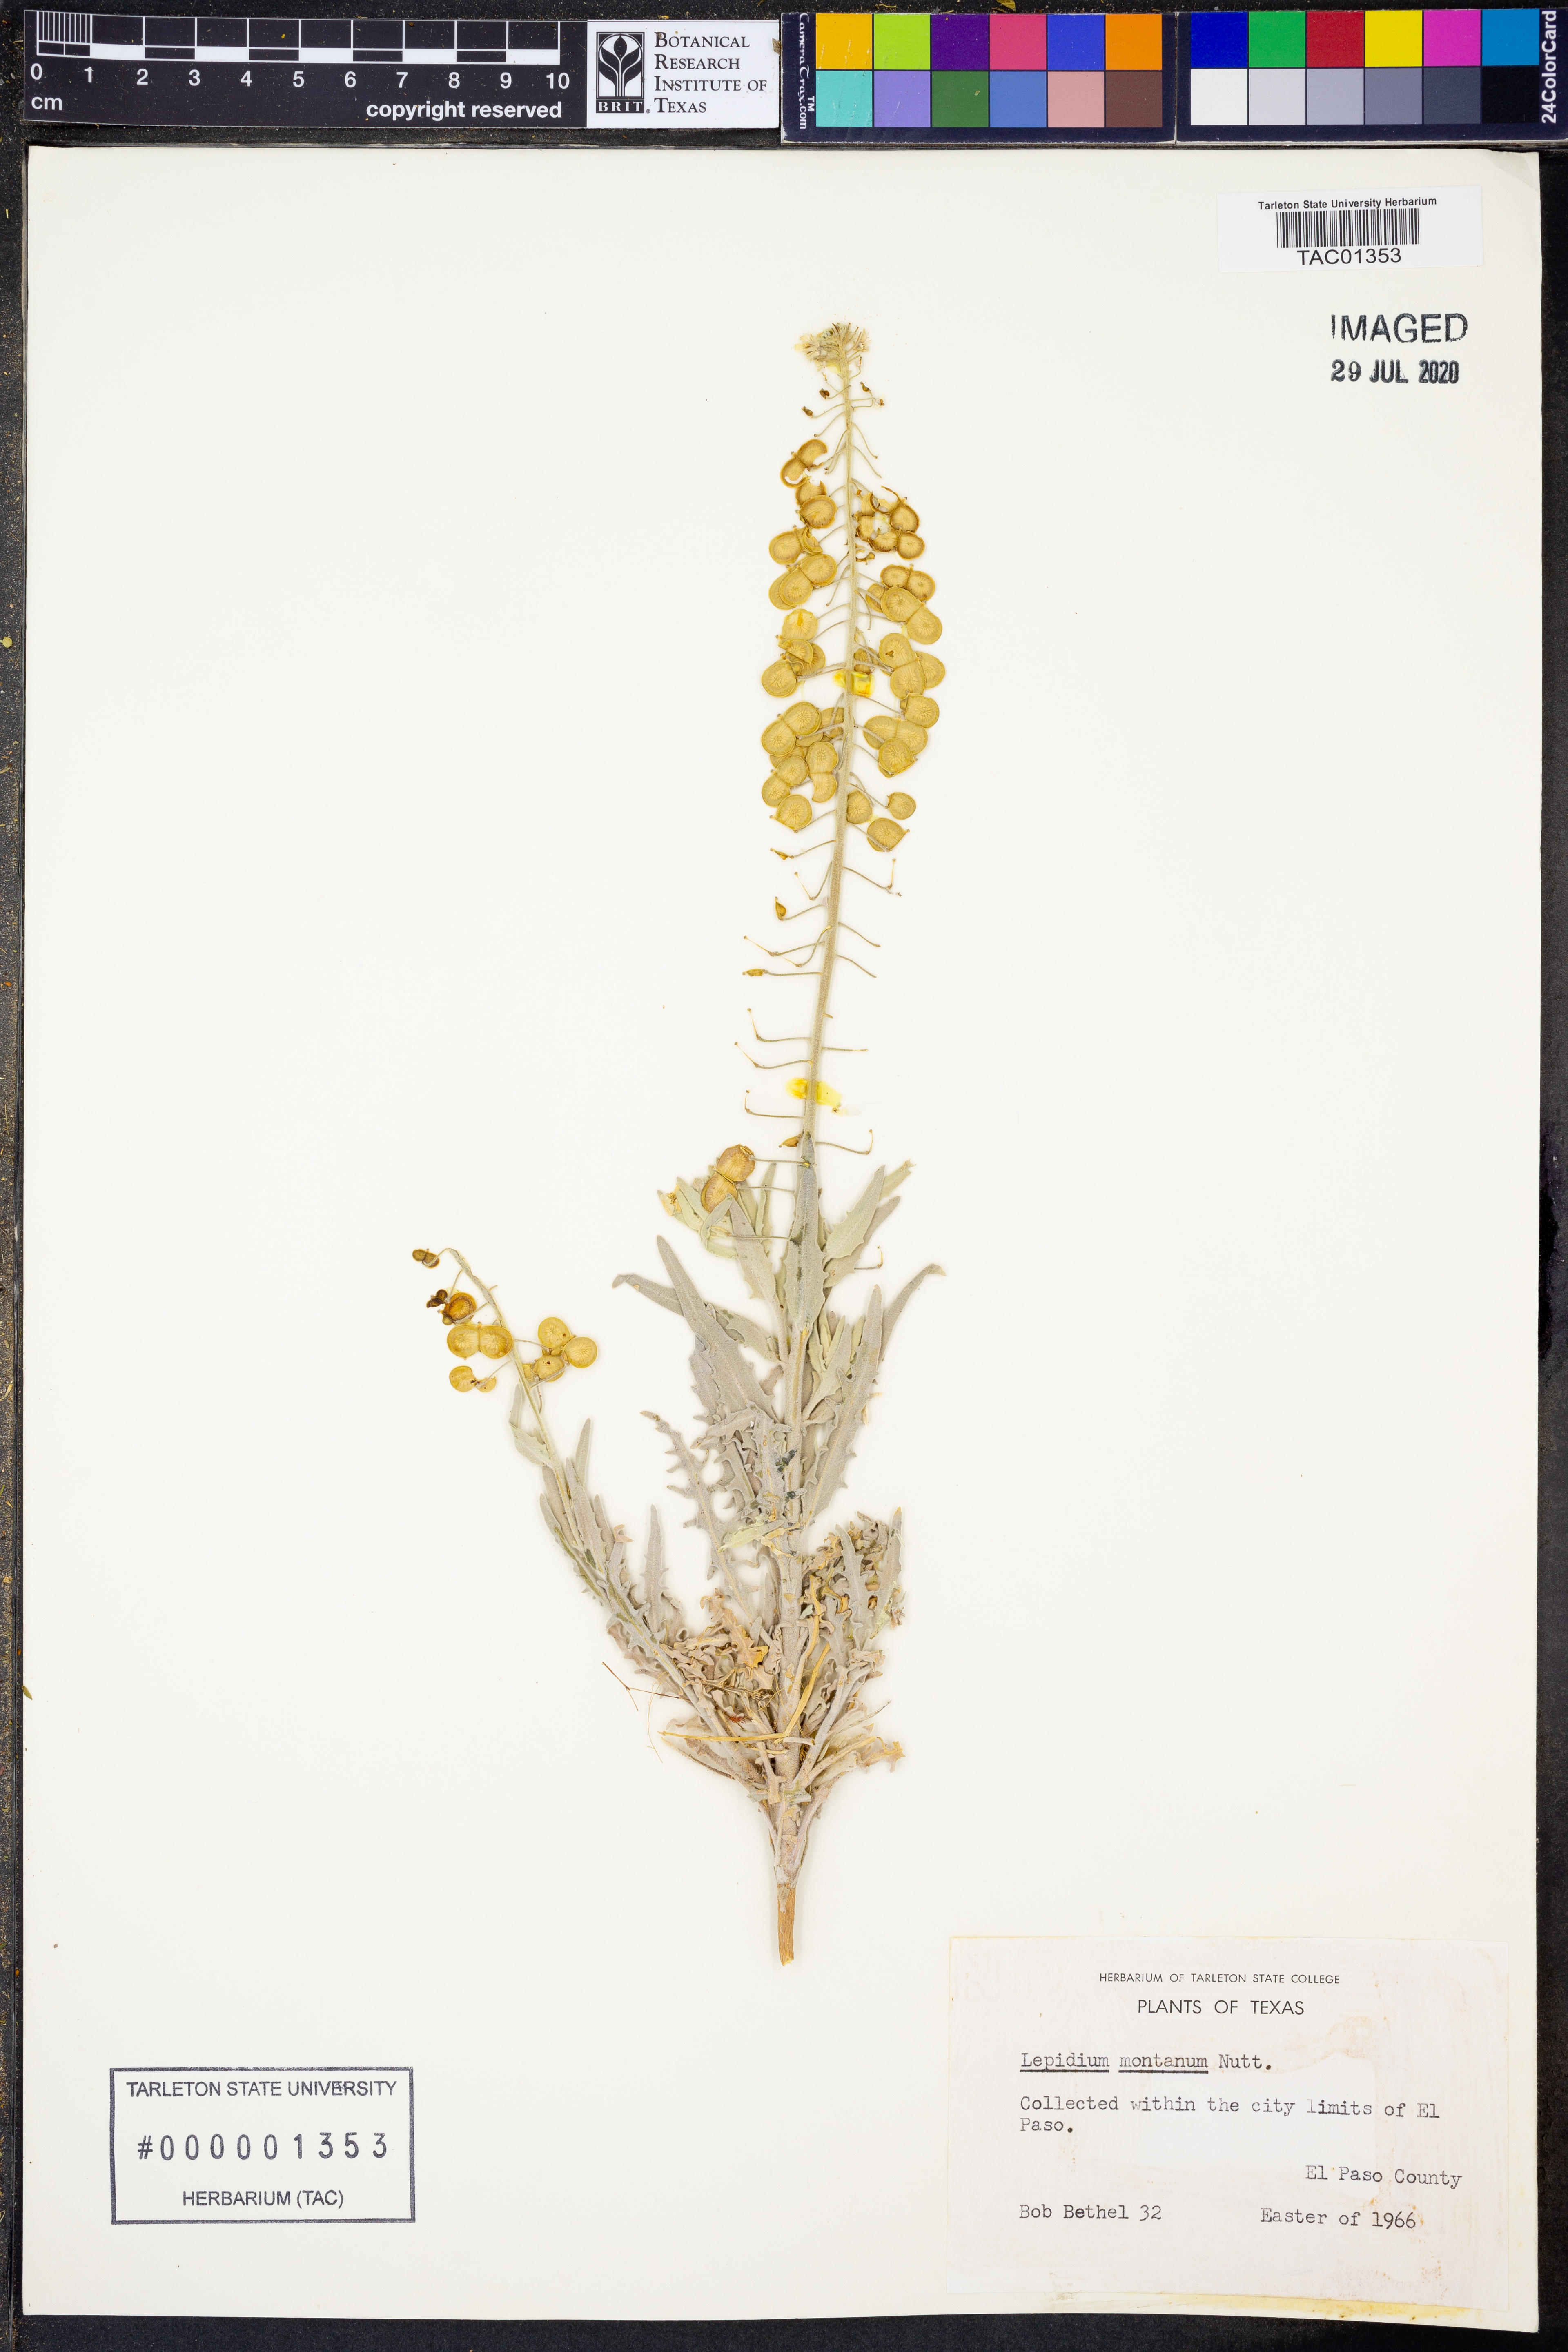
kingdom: Plantae
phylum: Tracheophyta
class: Magnoliopsida
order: Brassicales
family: Brassicaceae
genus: Lepidium
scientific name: Lepidium montanum
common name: Mountain pepperplant
